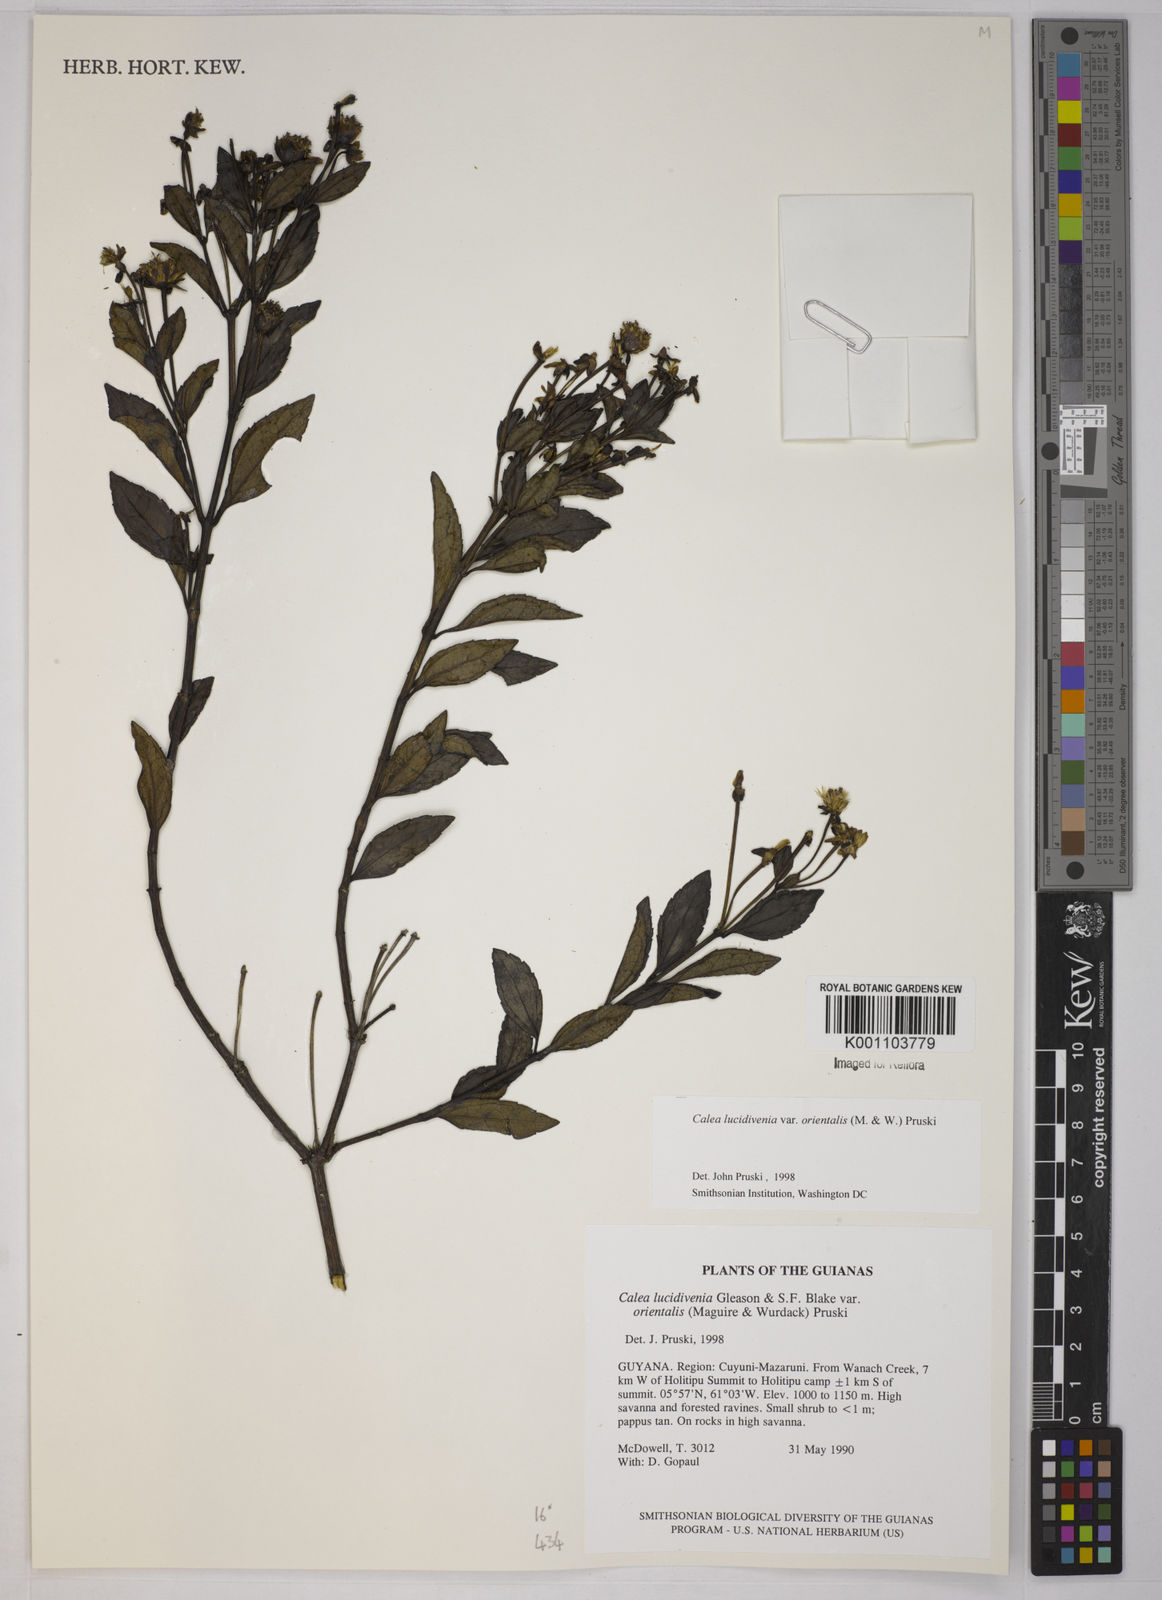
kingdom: Plantae
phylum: Tracheophyta
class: Magnoliopsida
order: Asterales
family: Asteraceae
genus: Calea
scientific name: Calea lucidivenia
